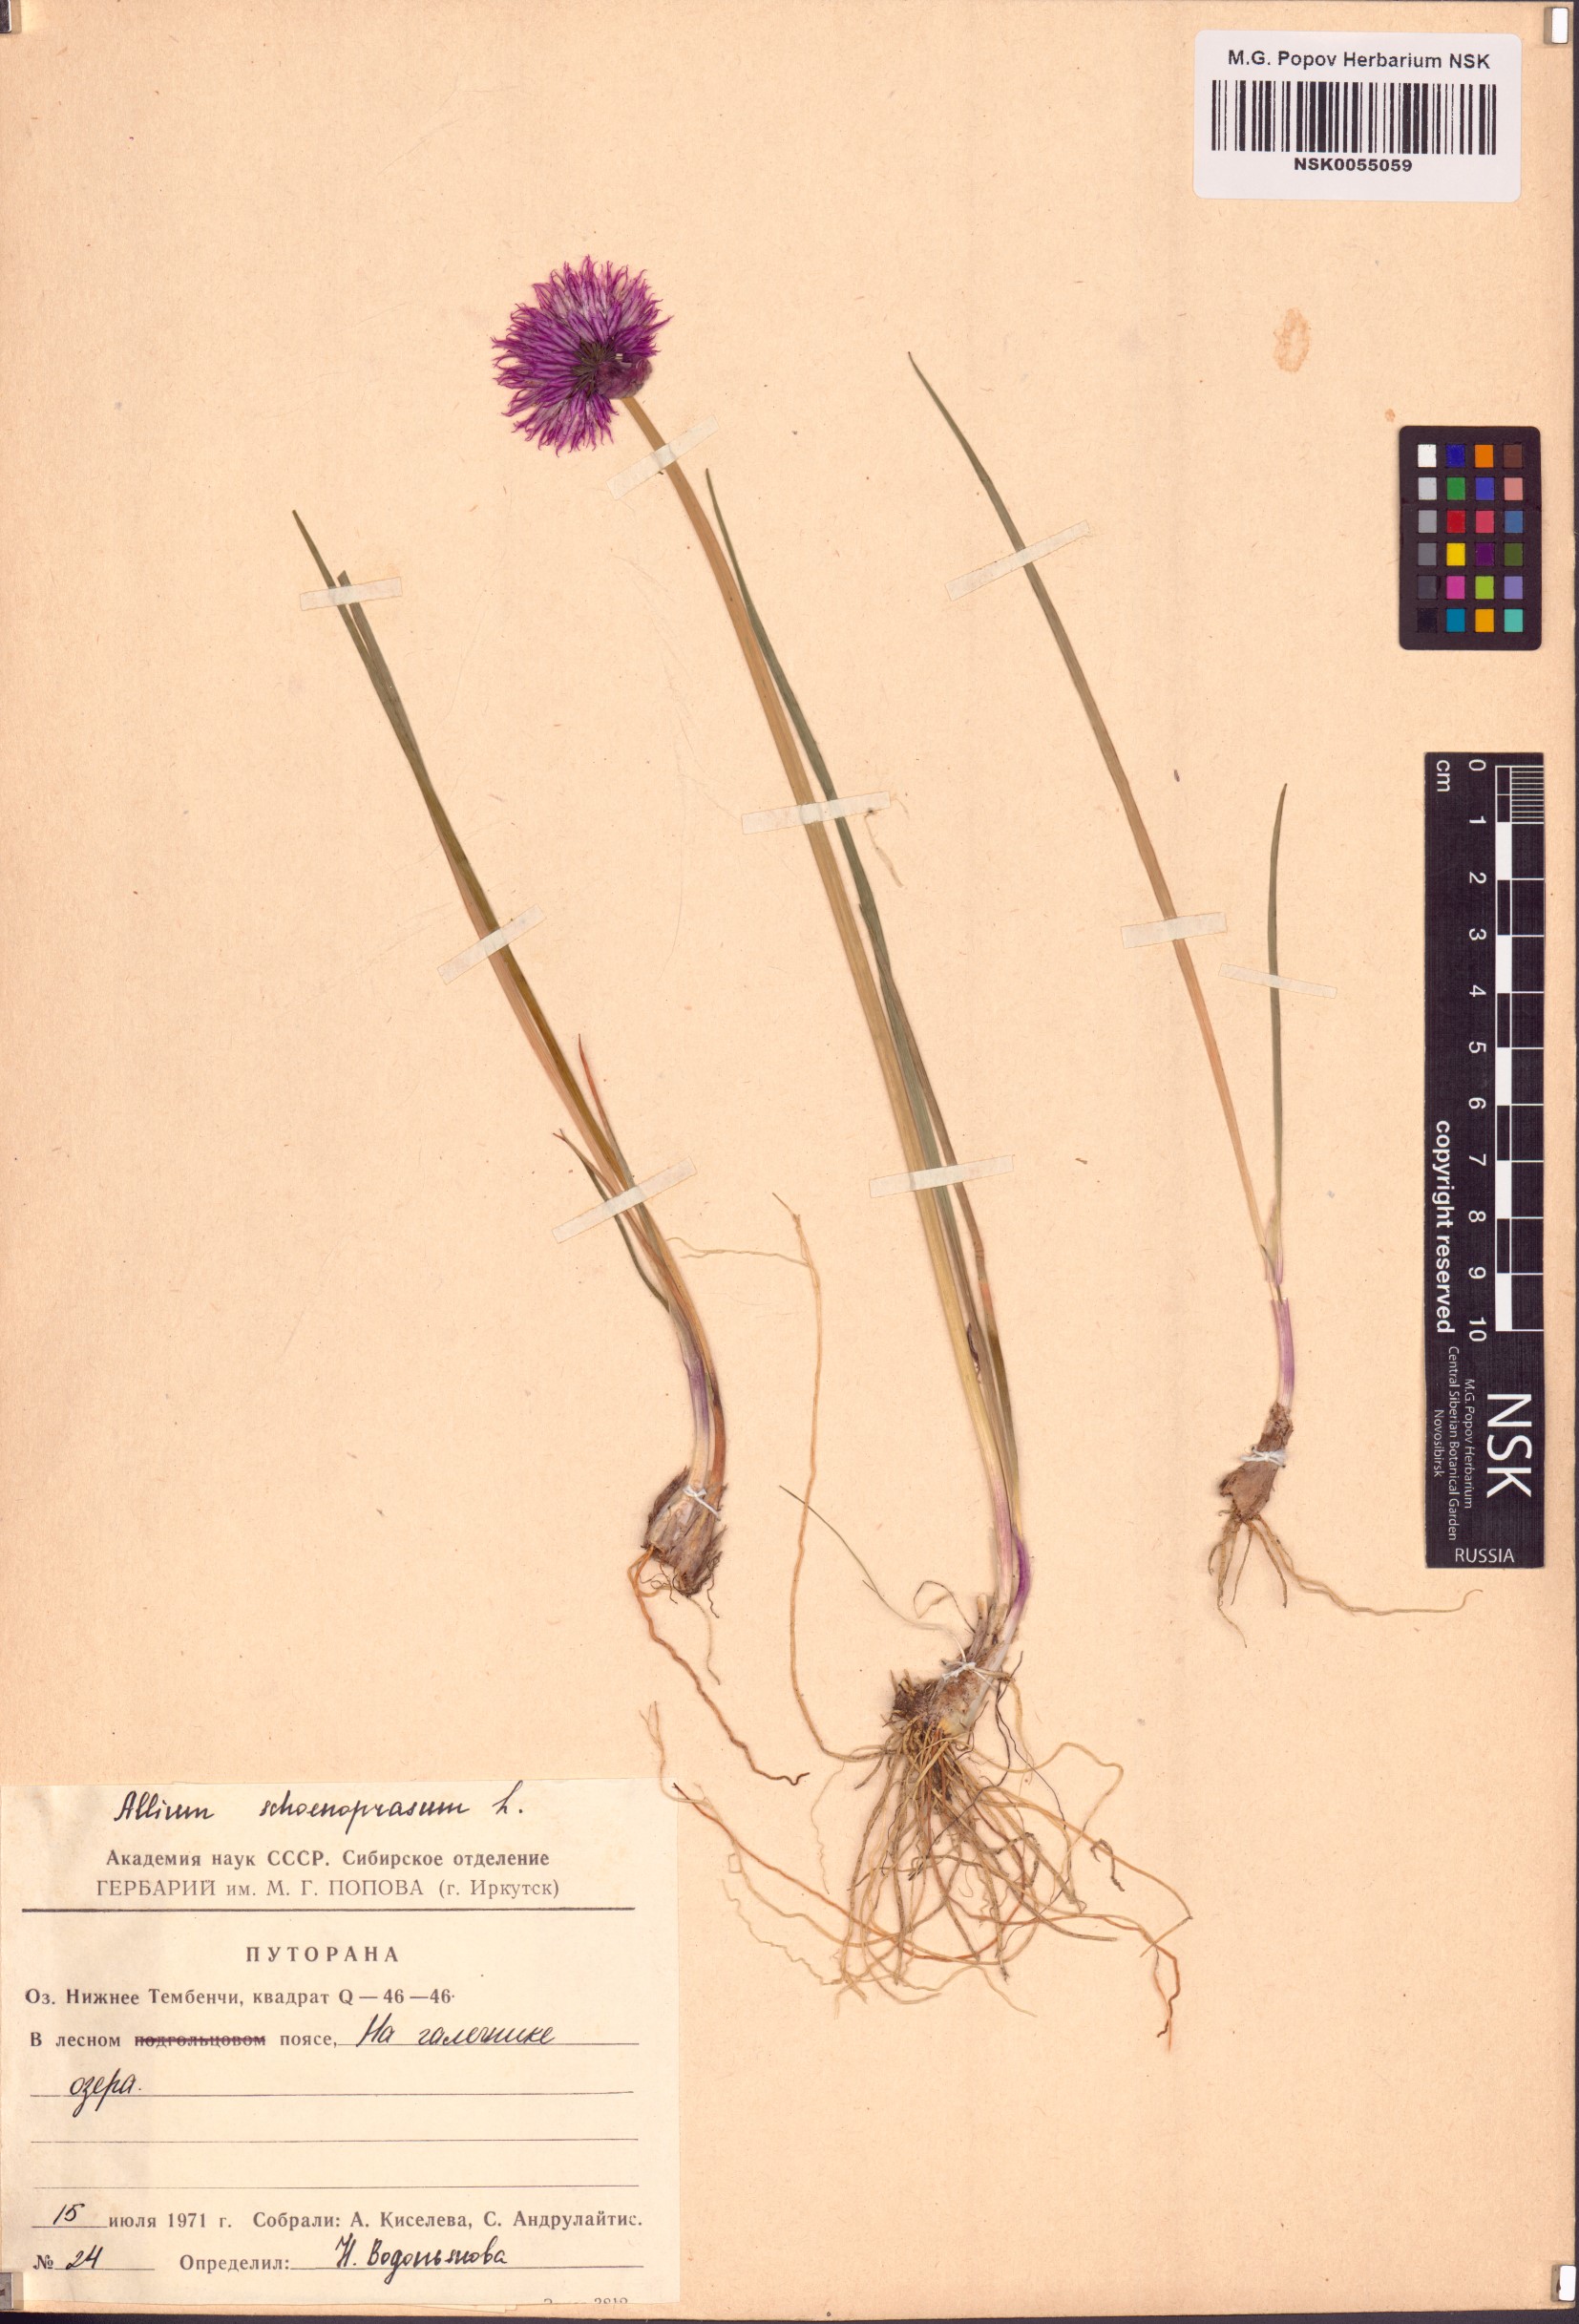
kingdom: Plantae
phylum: Tracheophyta
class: Liliopsida
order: Asparagales
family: Amaryllidaceae
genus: Allium
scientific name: Allium schoenoprasum
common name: Chives
